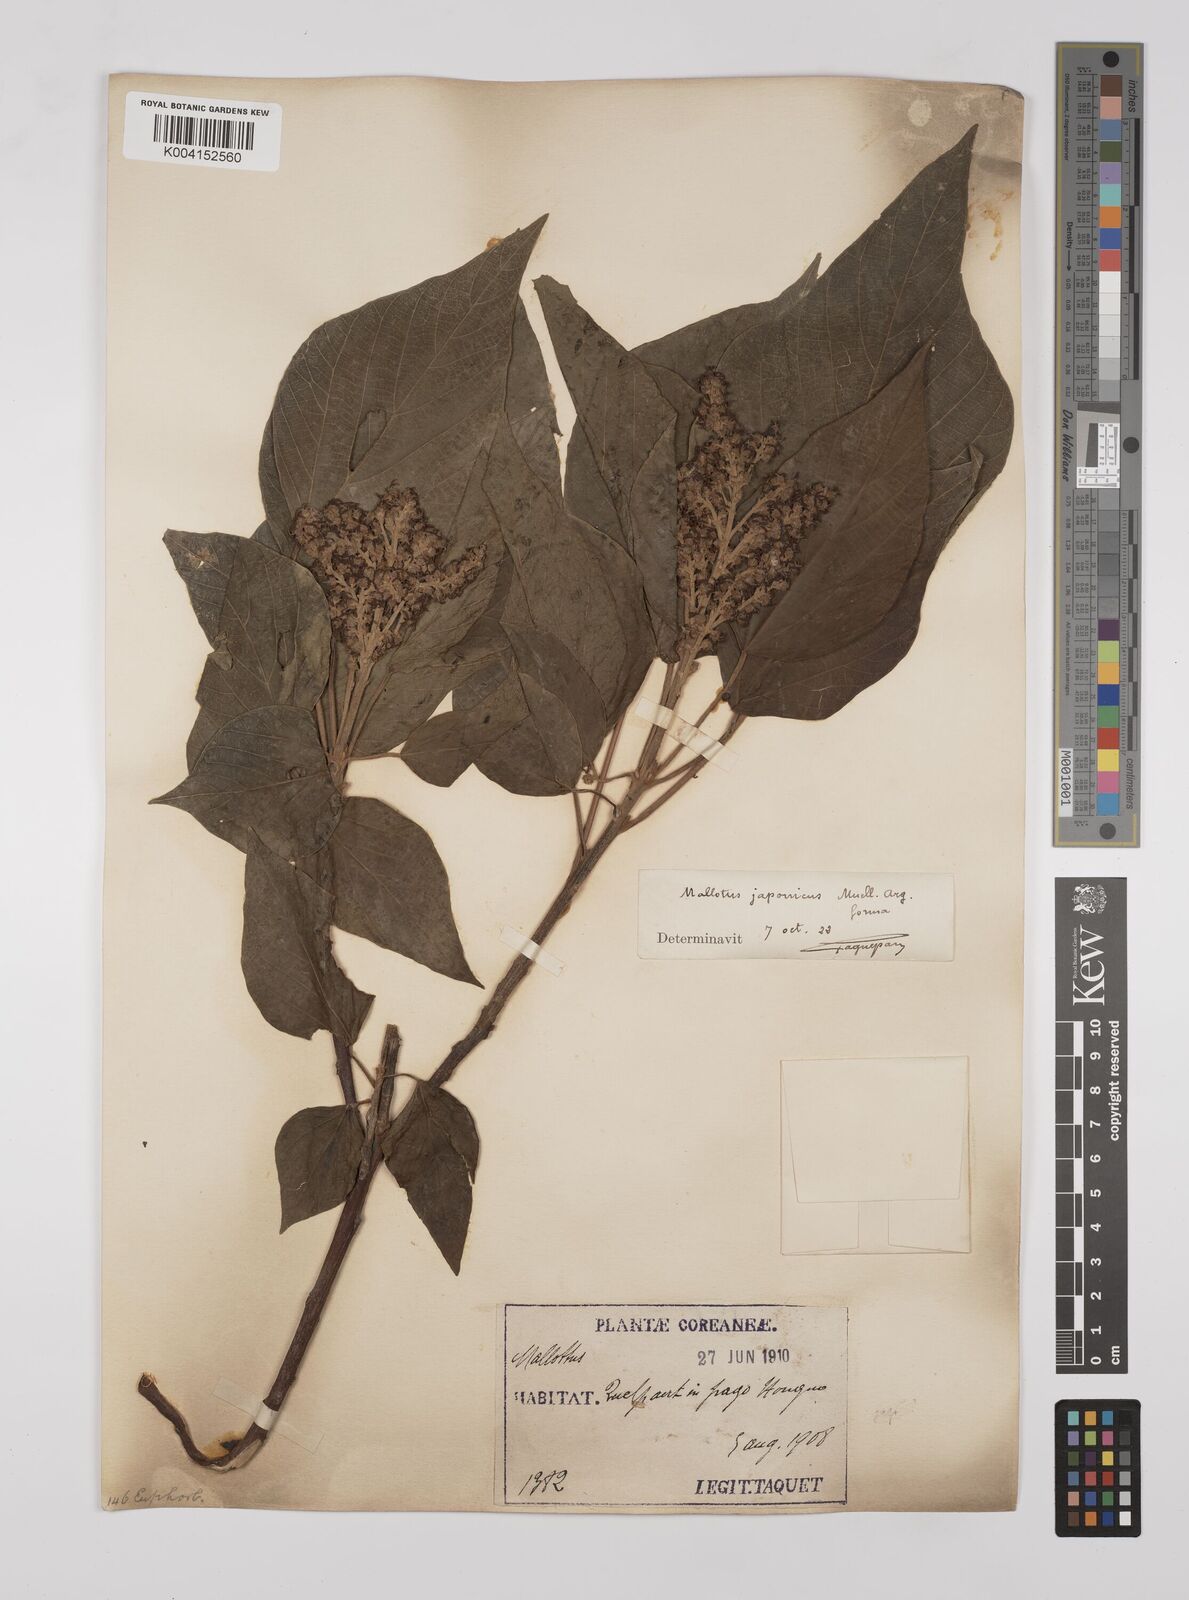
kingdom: Plantae
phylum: Tracheophyta
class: Magnoliopsida
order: Malpighiales
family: Euphorbiaceae
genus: Mallotus
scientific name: Mallotus japonicus
